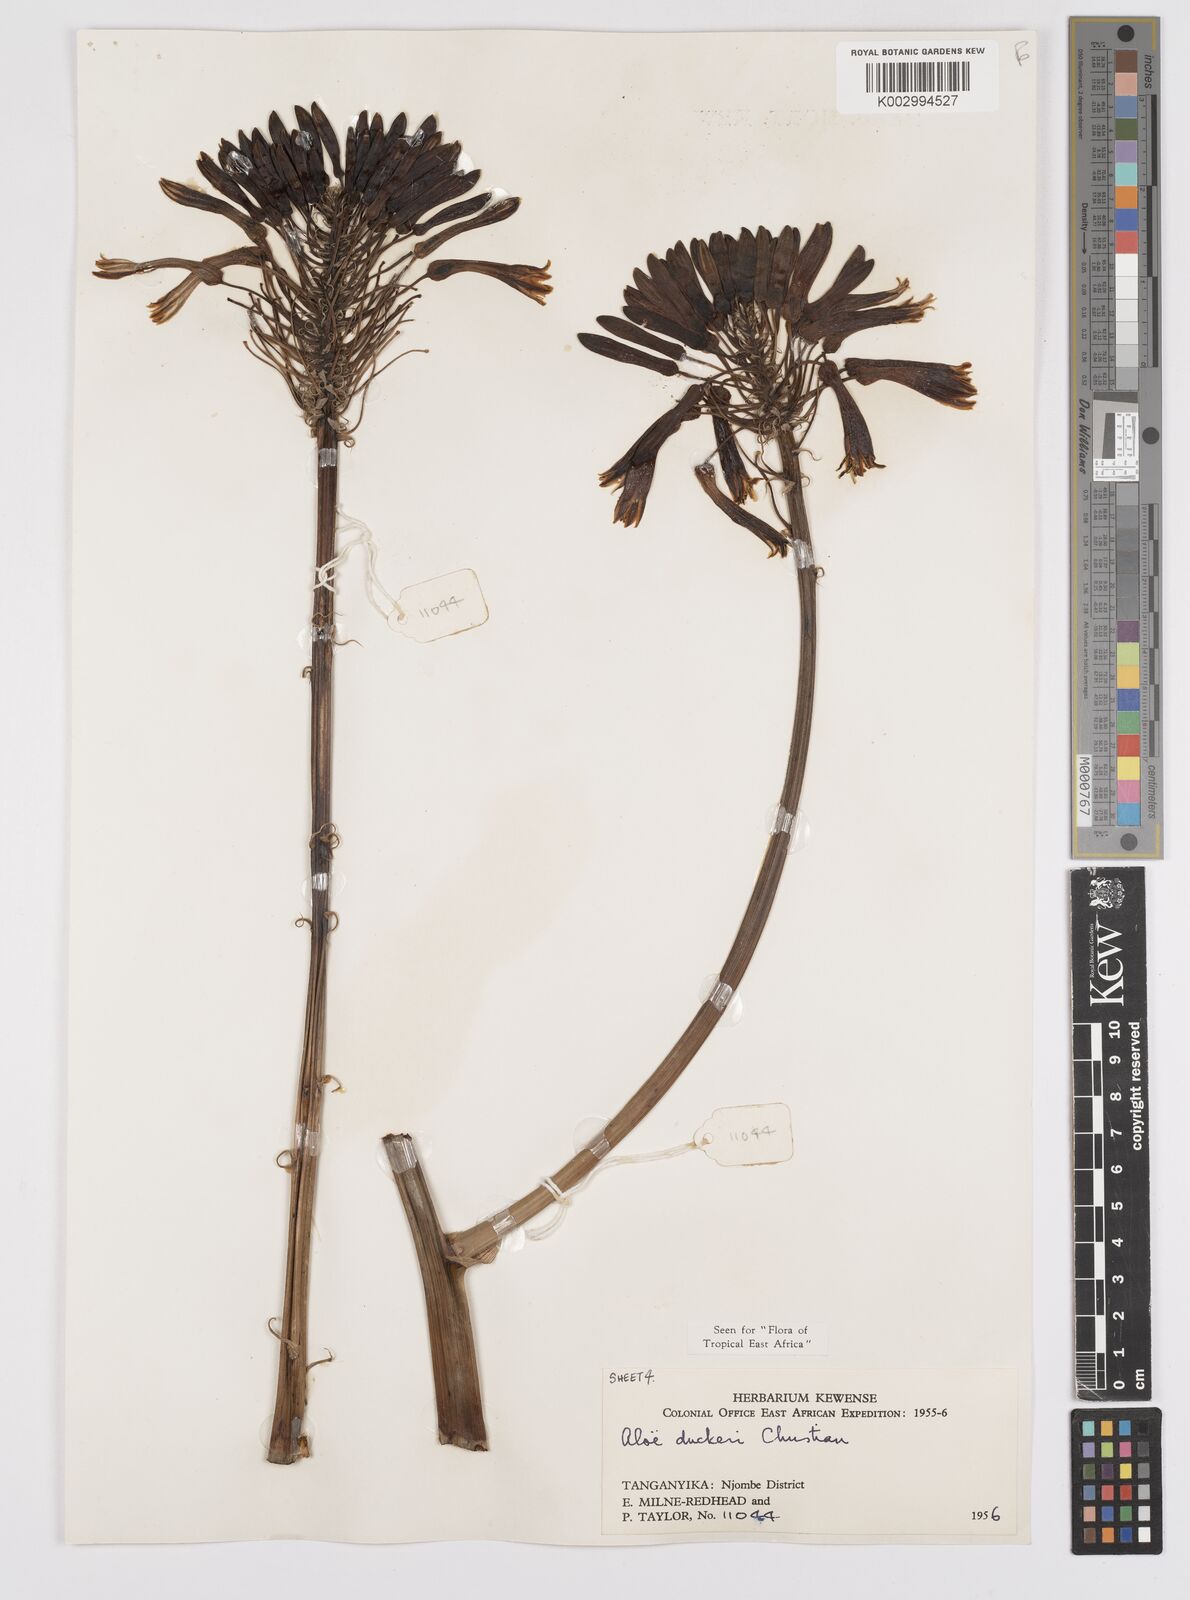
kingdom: Plantae
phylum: Tracheophyta
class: Liliopsida
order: Asparagales
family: Asphodelaceae
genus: Aloe
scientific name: Aloe duckeri
